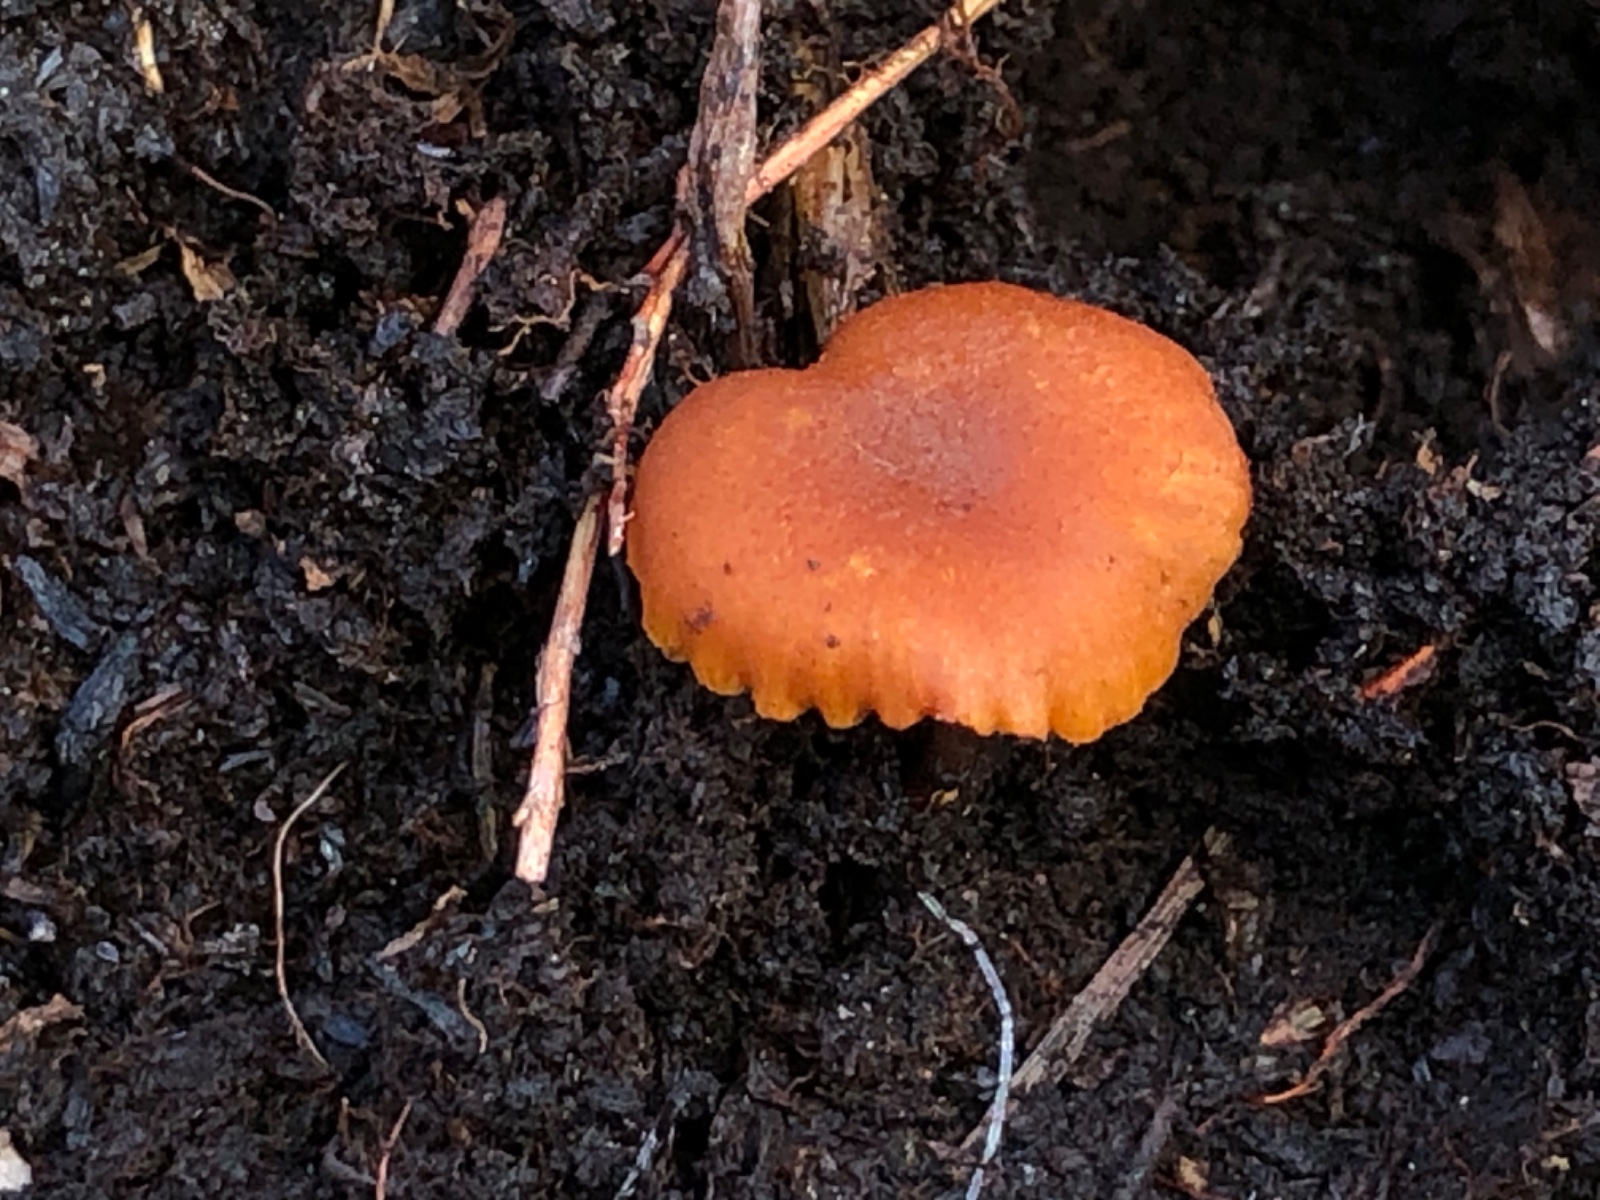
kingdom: Fungi
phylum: Basidiomycota
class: Agaricomycetes
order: Agaricales
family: Hymenogastraceae
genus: Gymnopilus
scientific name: Gymnopilus
